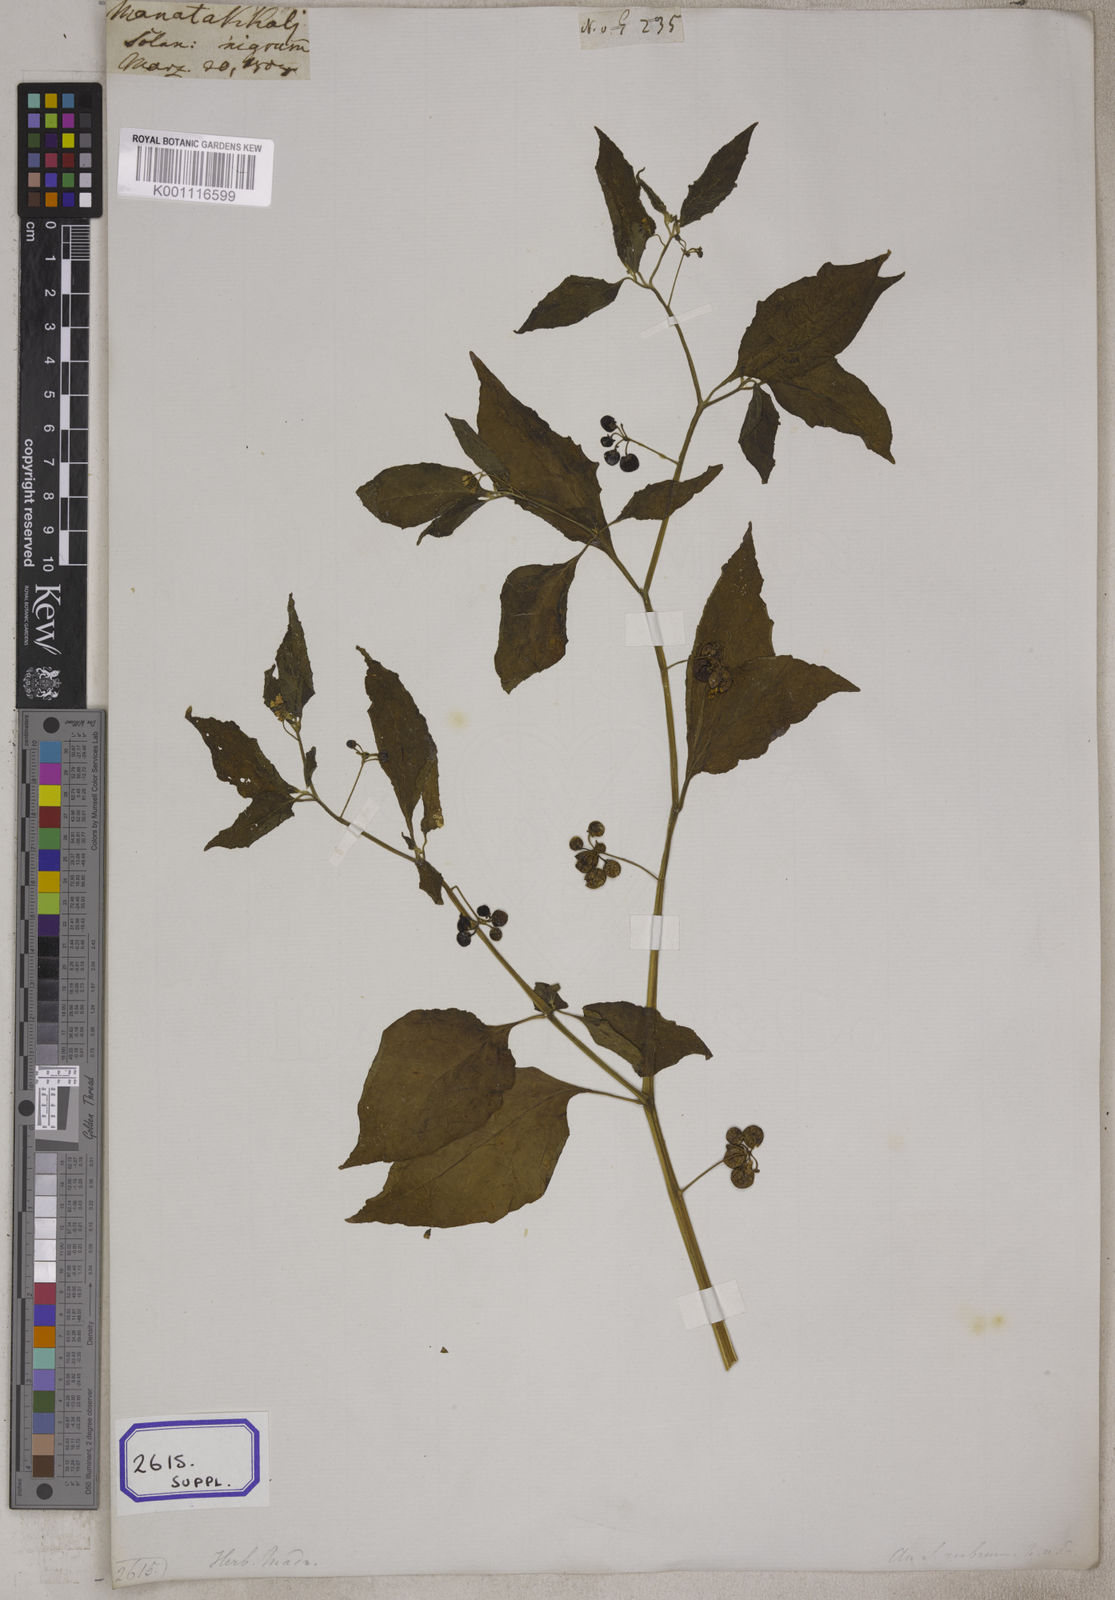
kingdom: Plantae
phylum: Tracheophyta
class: Magnoliopsida
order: Solanales
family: Solanaceae
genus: Solanum
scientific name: Solanum nigrum
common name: Black nightshade
